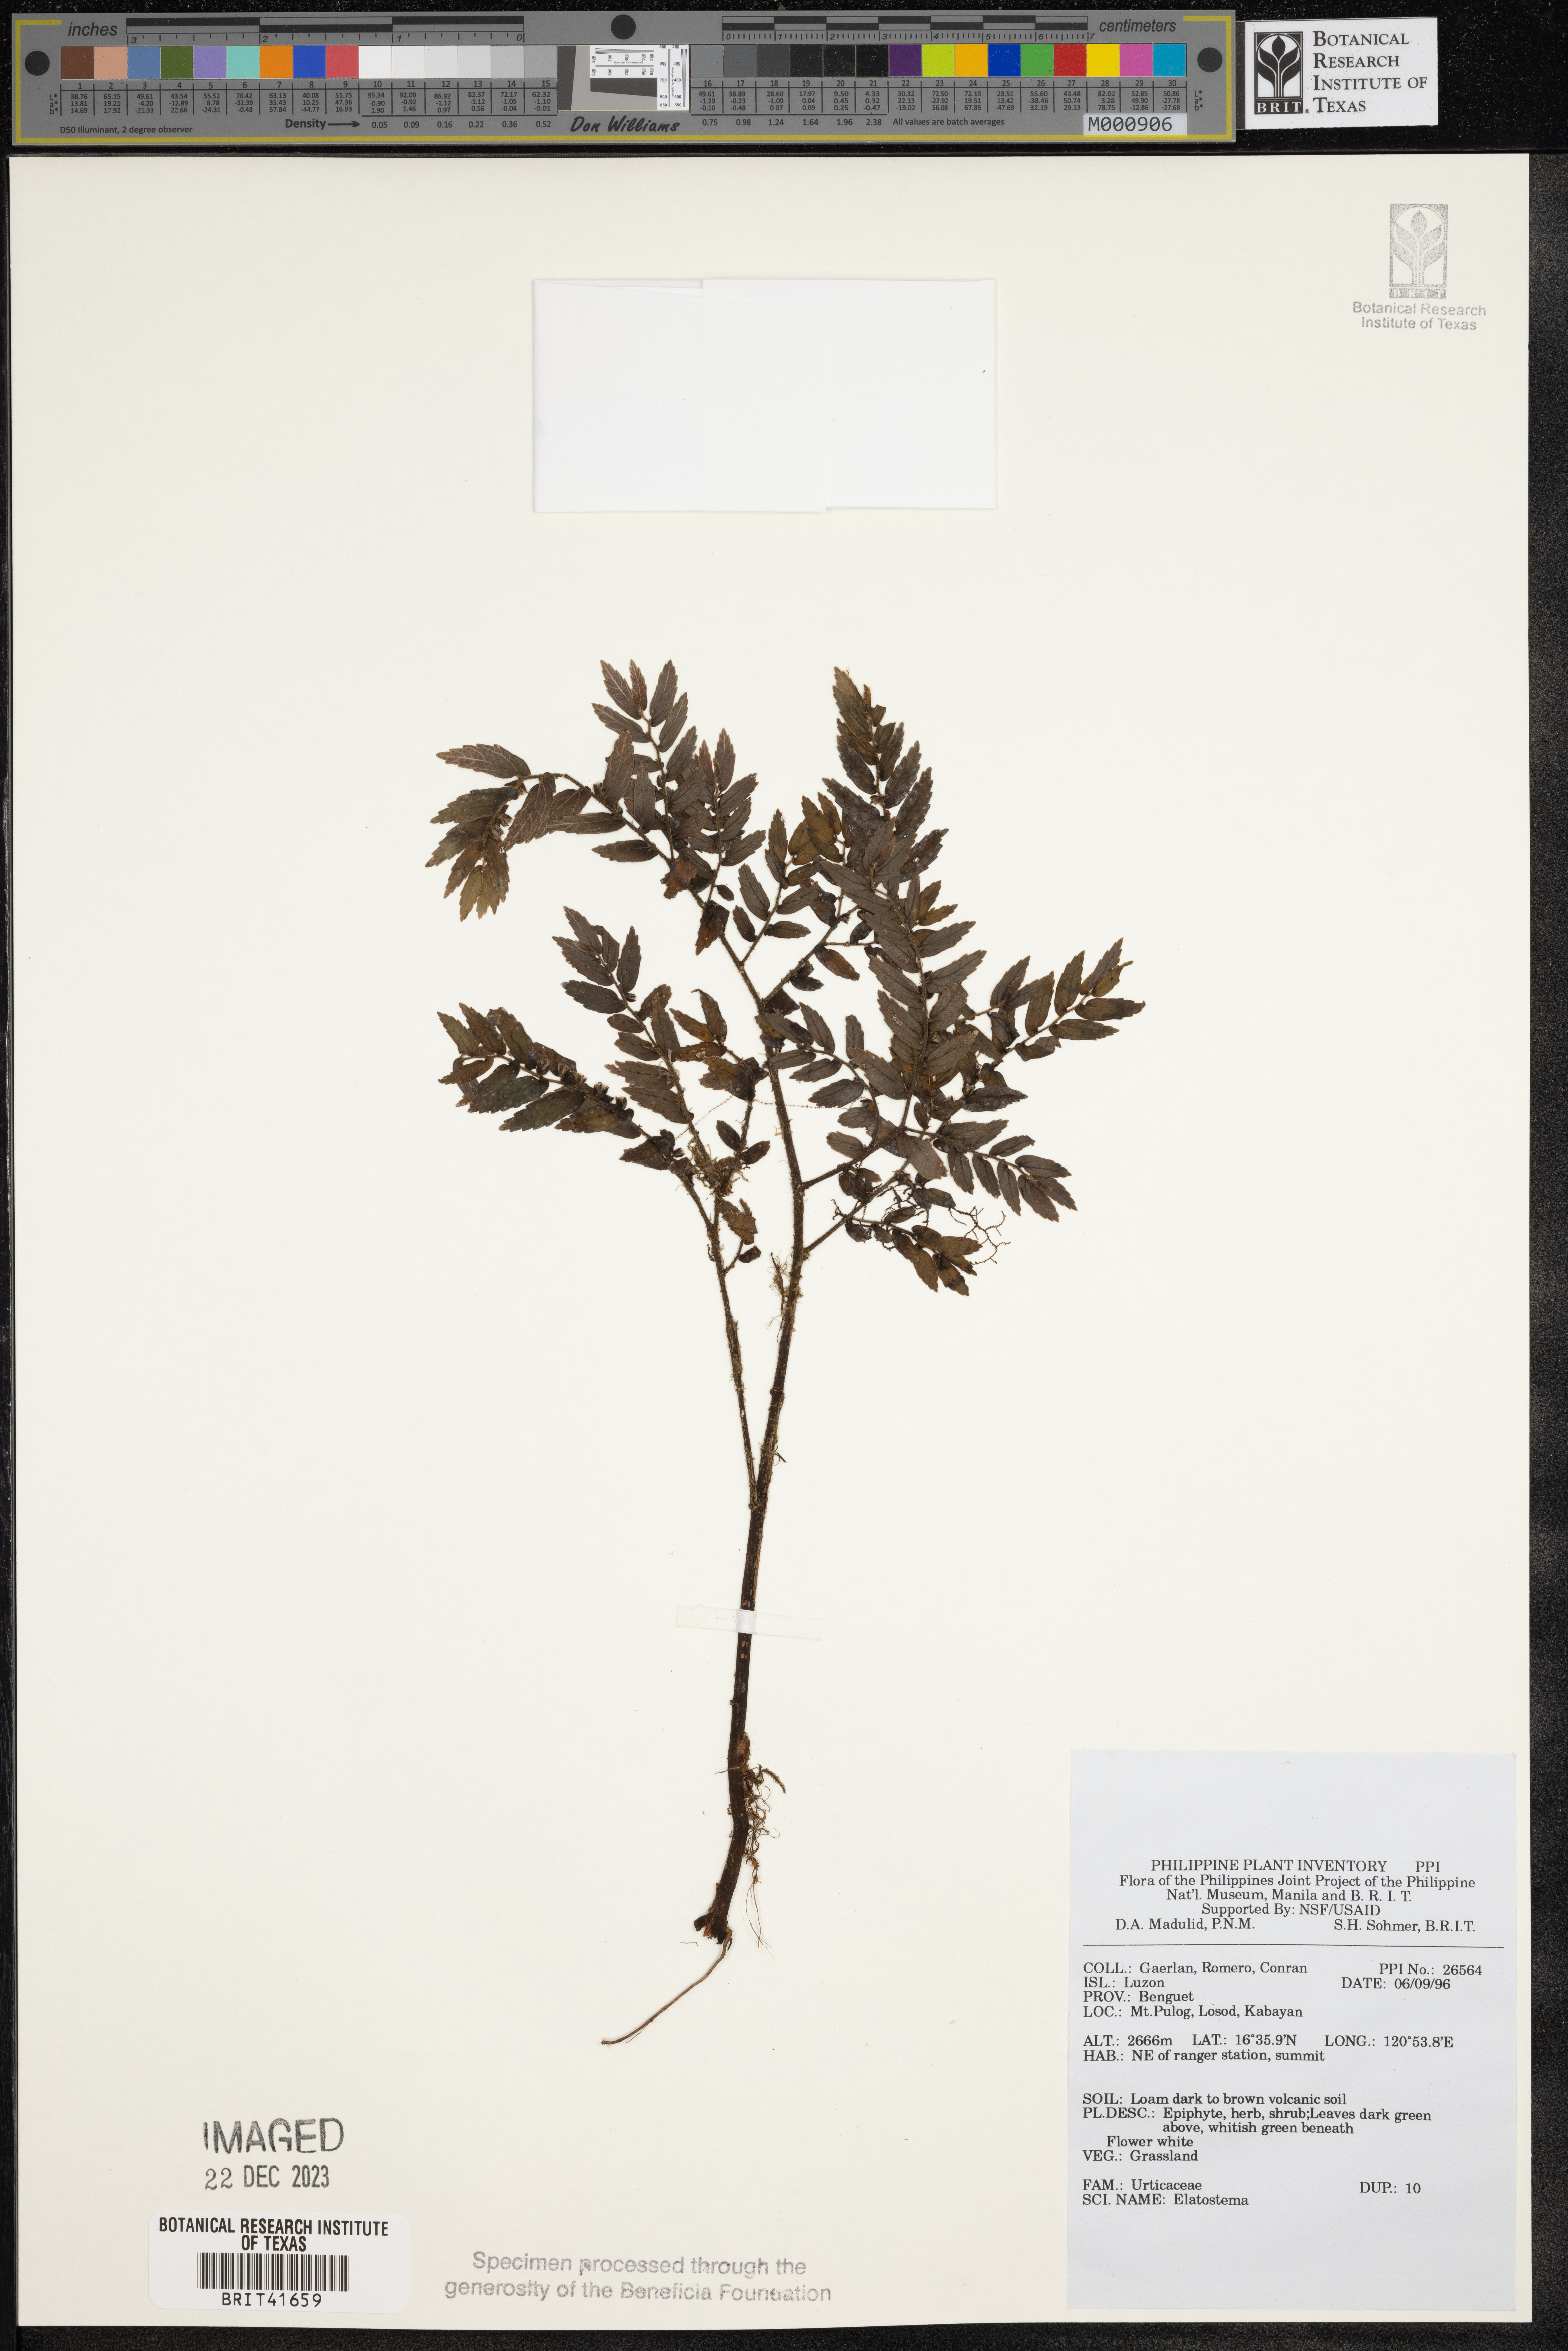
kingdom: Plantae
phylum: Tracheophyta
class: Magnoliopsida
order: Rosales
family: Urticaceae
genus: Elatostema
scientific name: Elatostema
